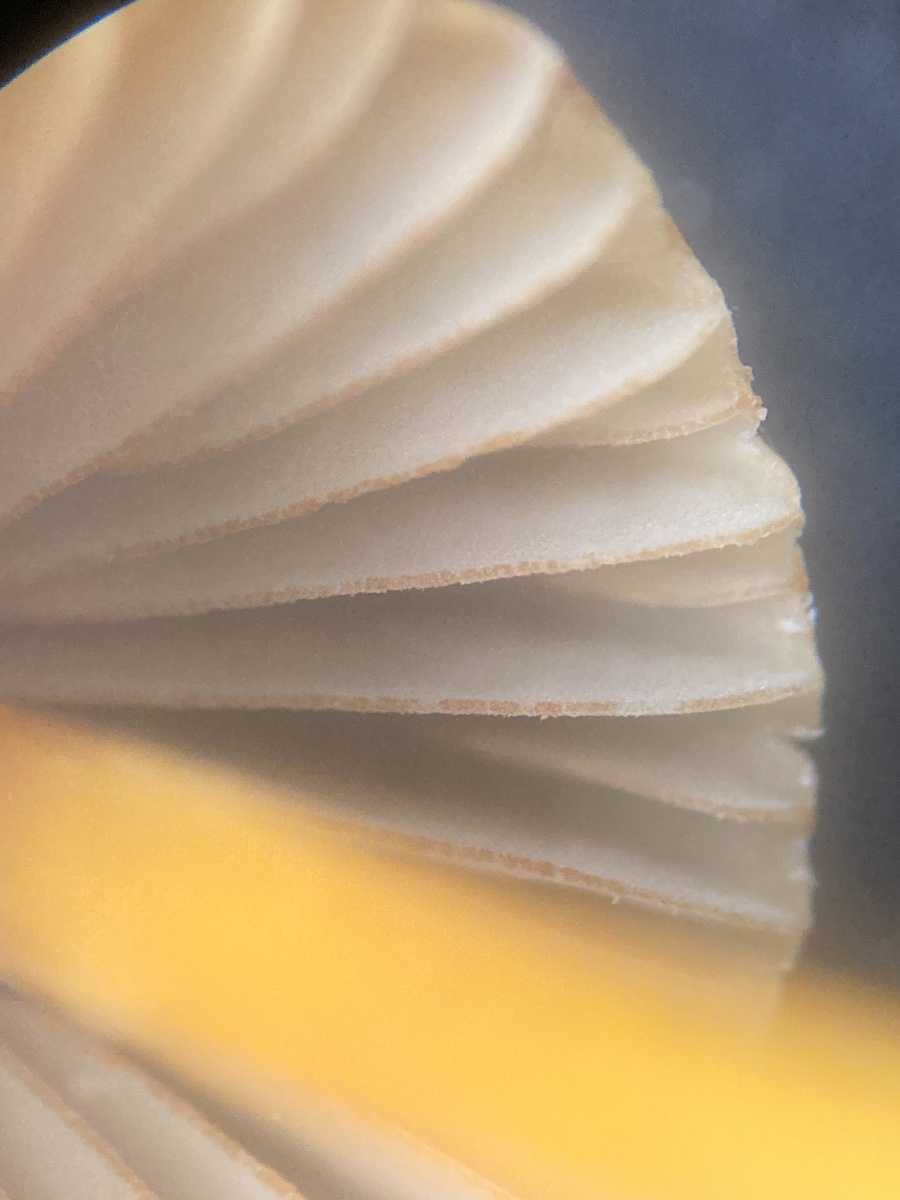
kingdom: Fungi
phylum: Basidiomycota
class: Agaricomycetes
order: Agaricales
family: Mycenaceae
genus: Mycena
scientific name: Mycena olivaceomarginata
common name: brunægget huesvamp
